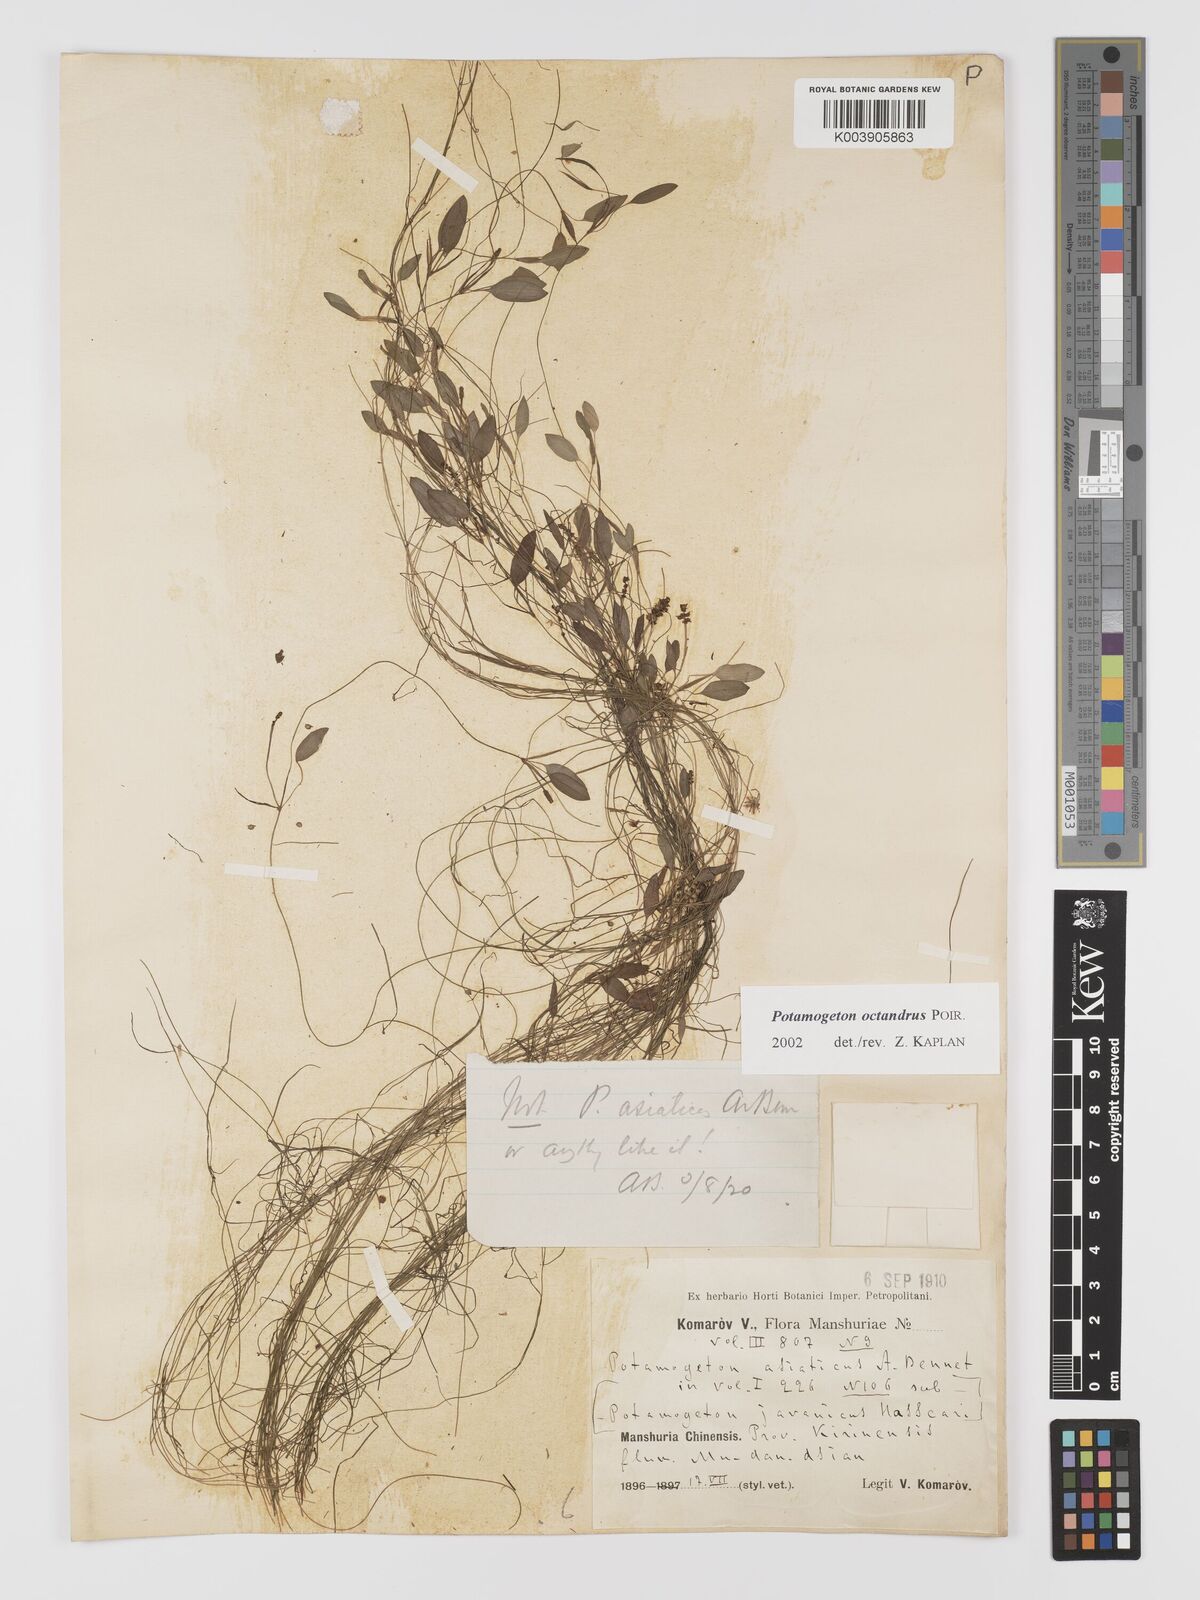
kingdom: Plantae
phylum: Tracheophyta
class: Liliopsida
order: Alismatales
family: Potamogetonaceae
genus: Potamogeton
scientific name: Potamogeton octandrus
